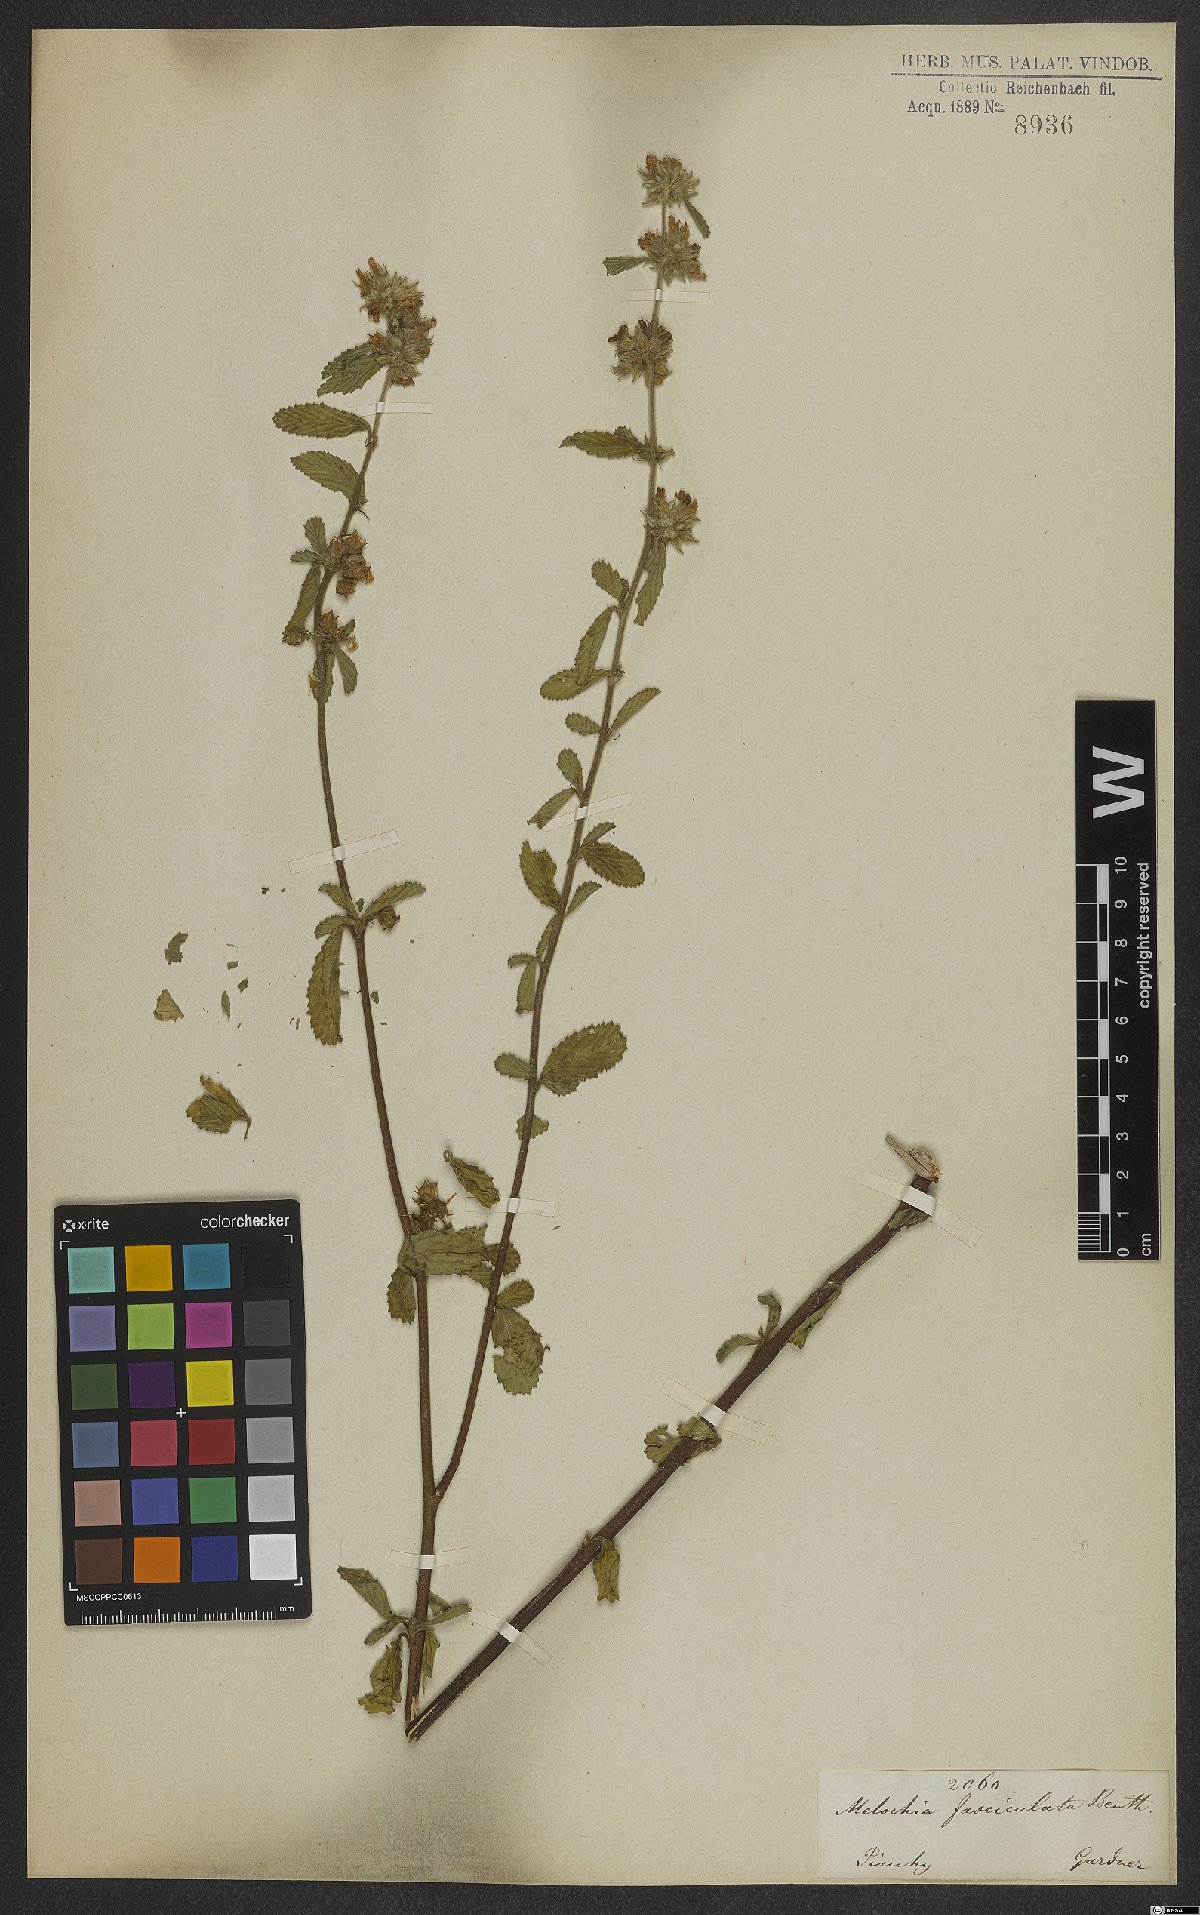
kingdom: Plantae
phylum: Tracheophyta
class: Magnoliopsida
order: Malvales
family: Malvaceae
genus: Melochia
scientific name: Melochia parvifolia
